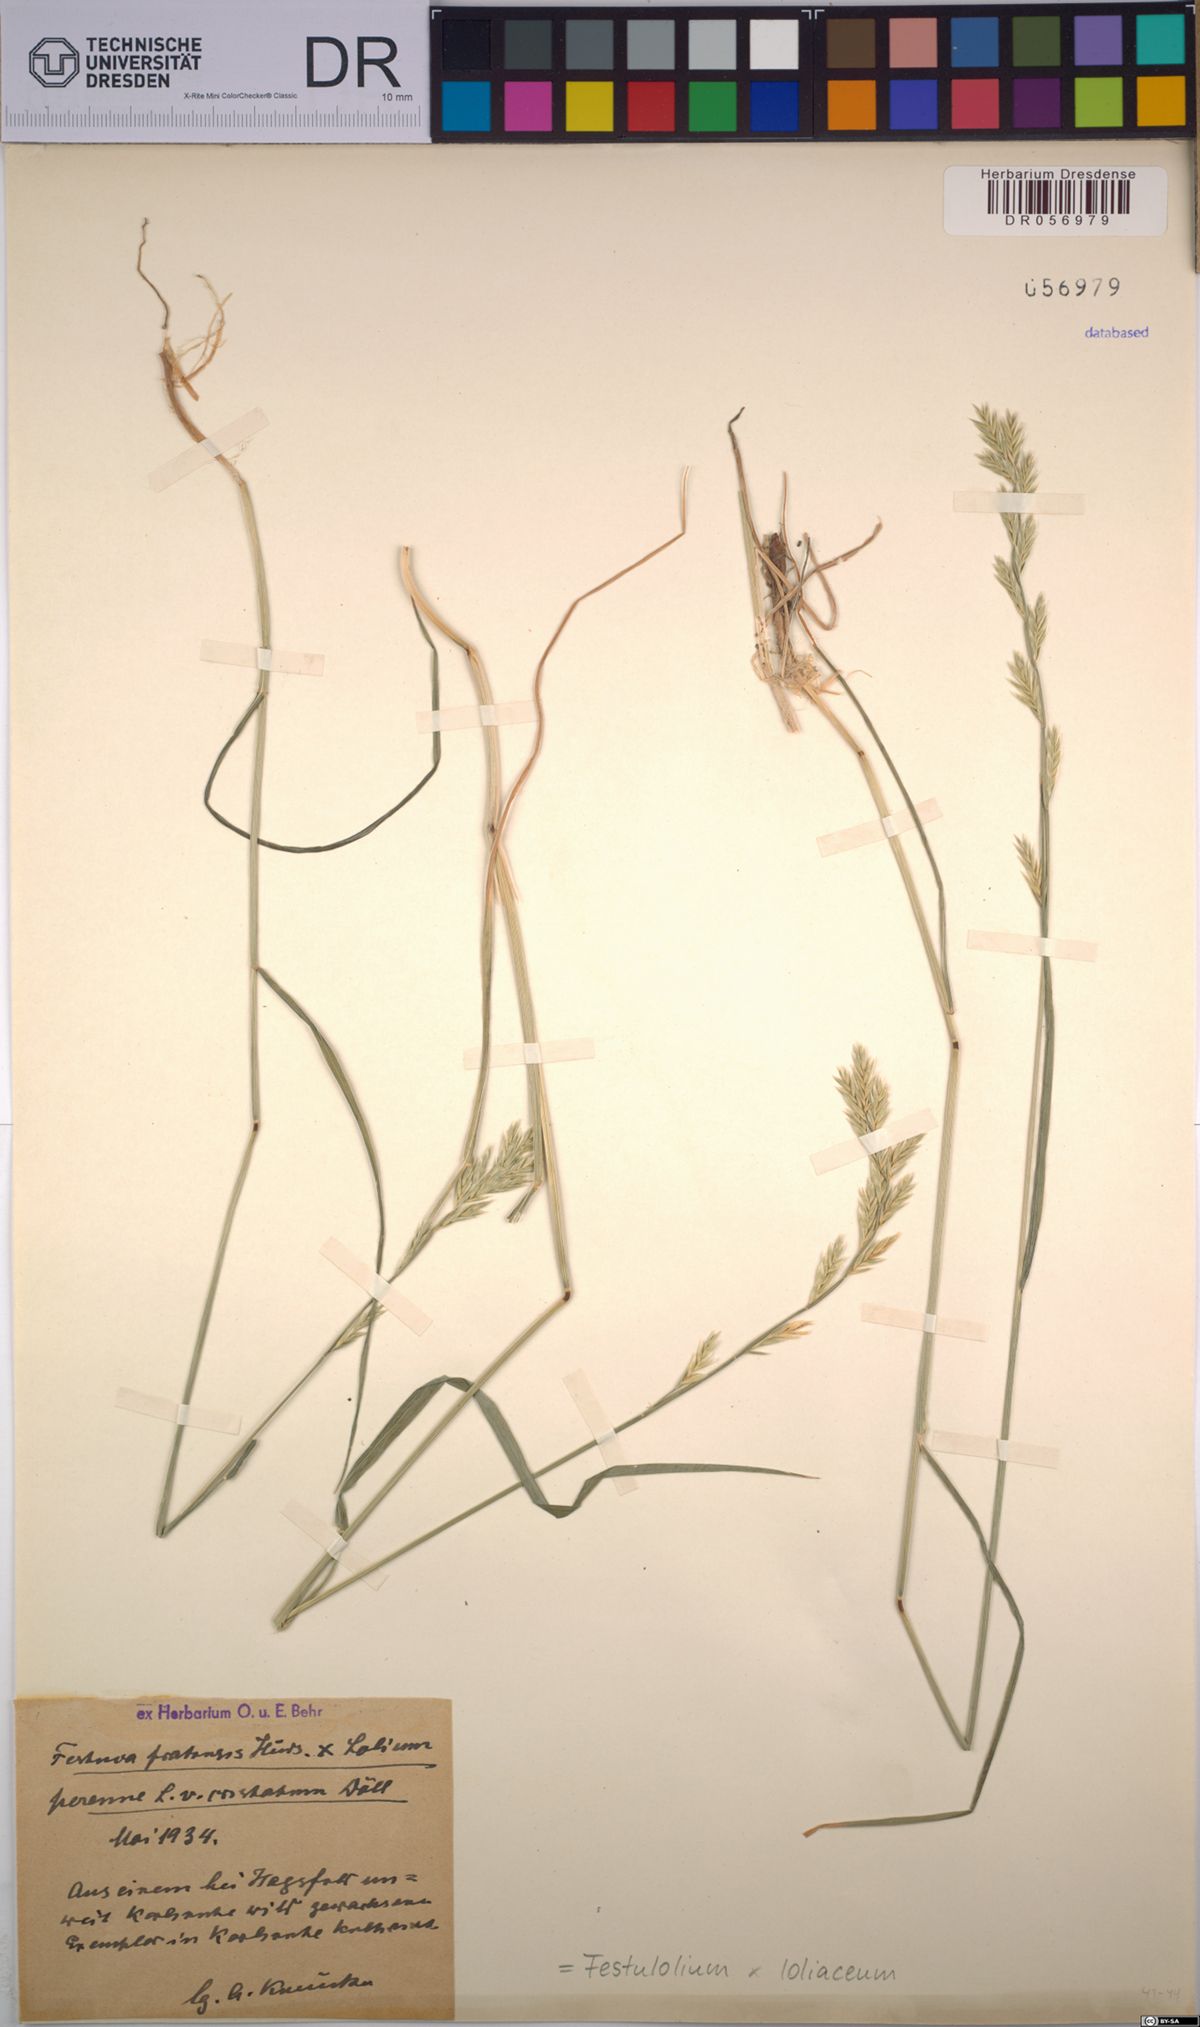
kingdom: Plantae
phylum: Tracheophyta
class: Liliopsida
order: Poales
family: Poaceae
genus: Lolium
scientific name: Lolium elongatum
